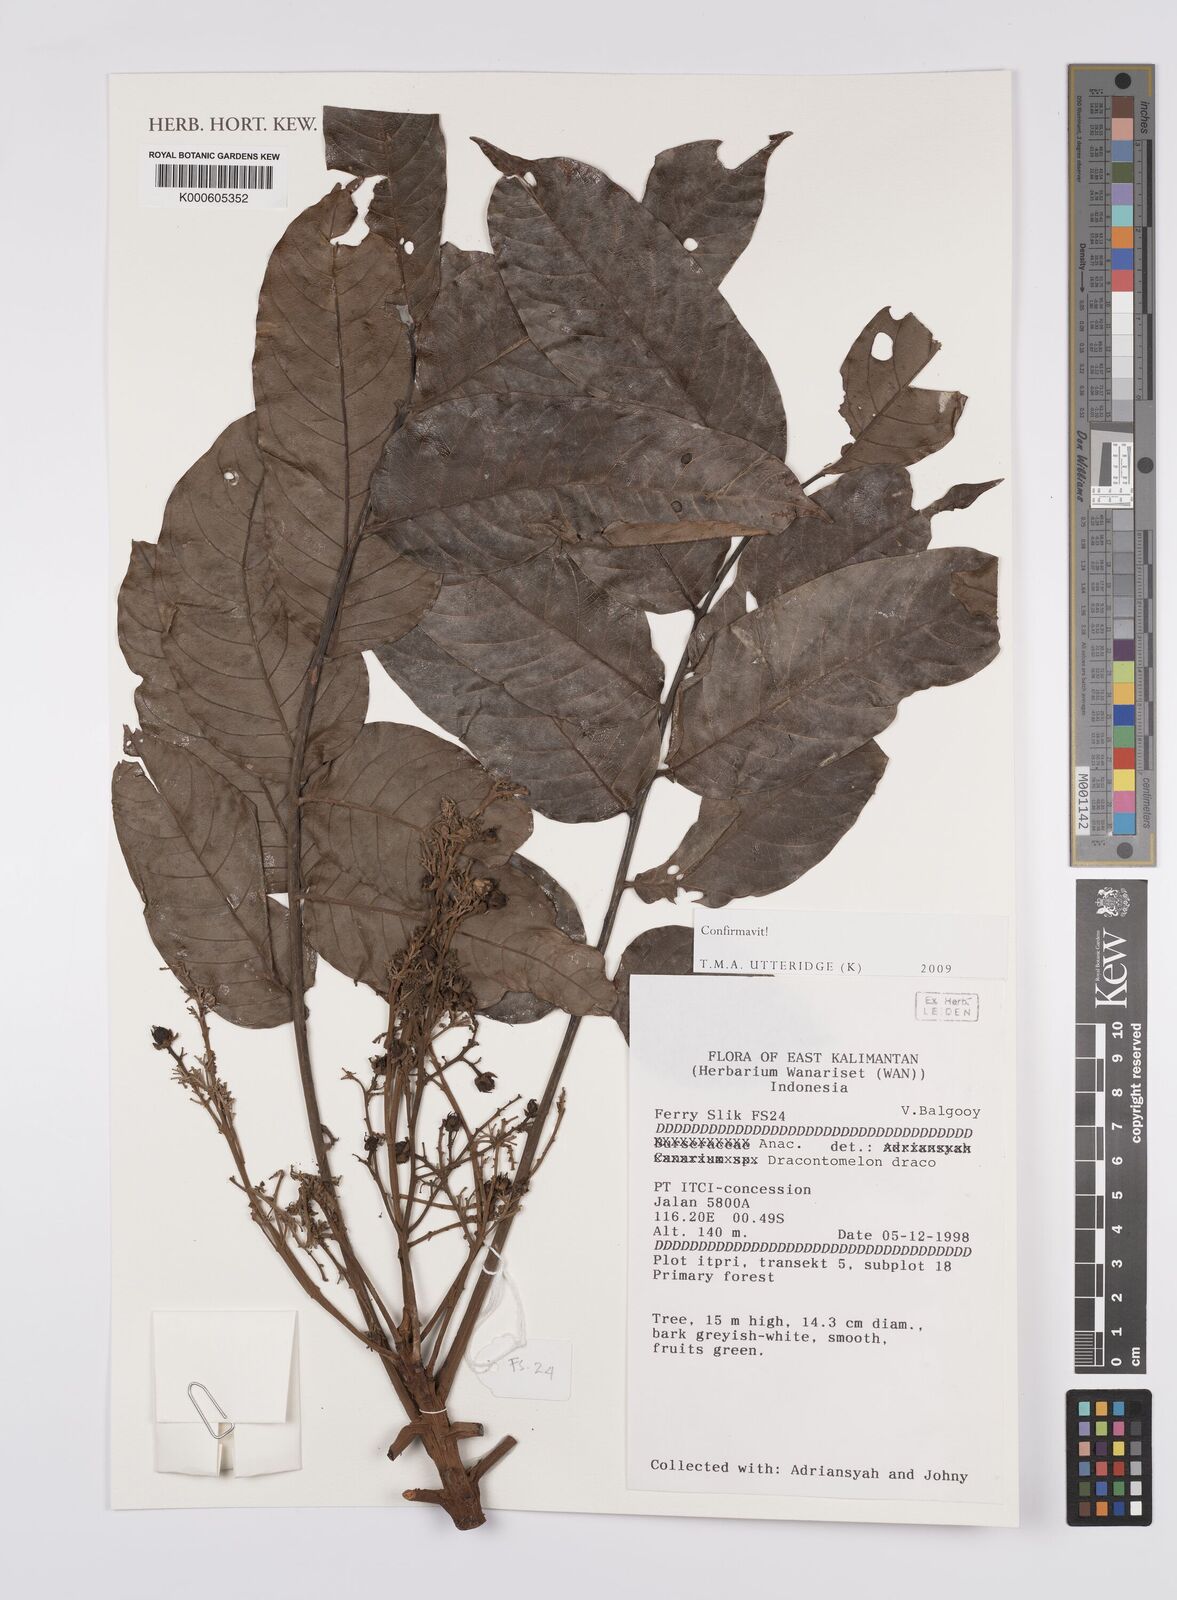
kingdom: Plantae
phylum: Tracheophyta
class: Magnoliopsida
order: Sapindales
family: Anacardiaceae
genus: Dracontomelon
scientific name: Dracontomelon dao
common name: Argus pheasant-tree
